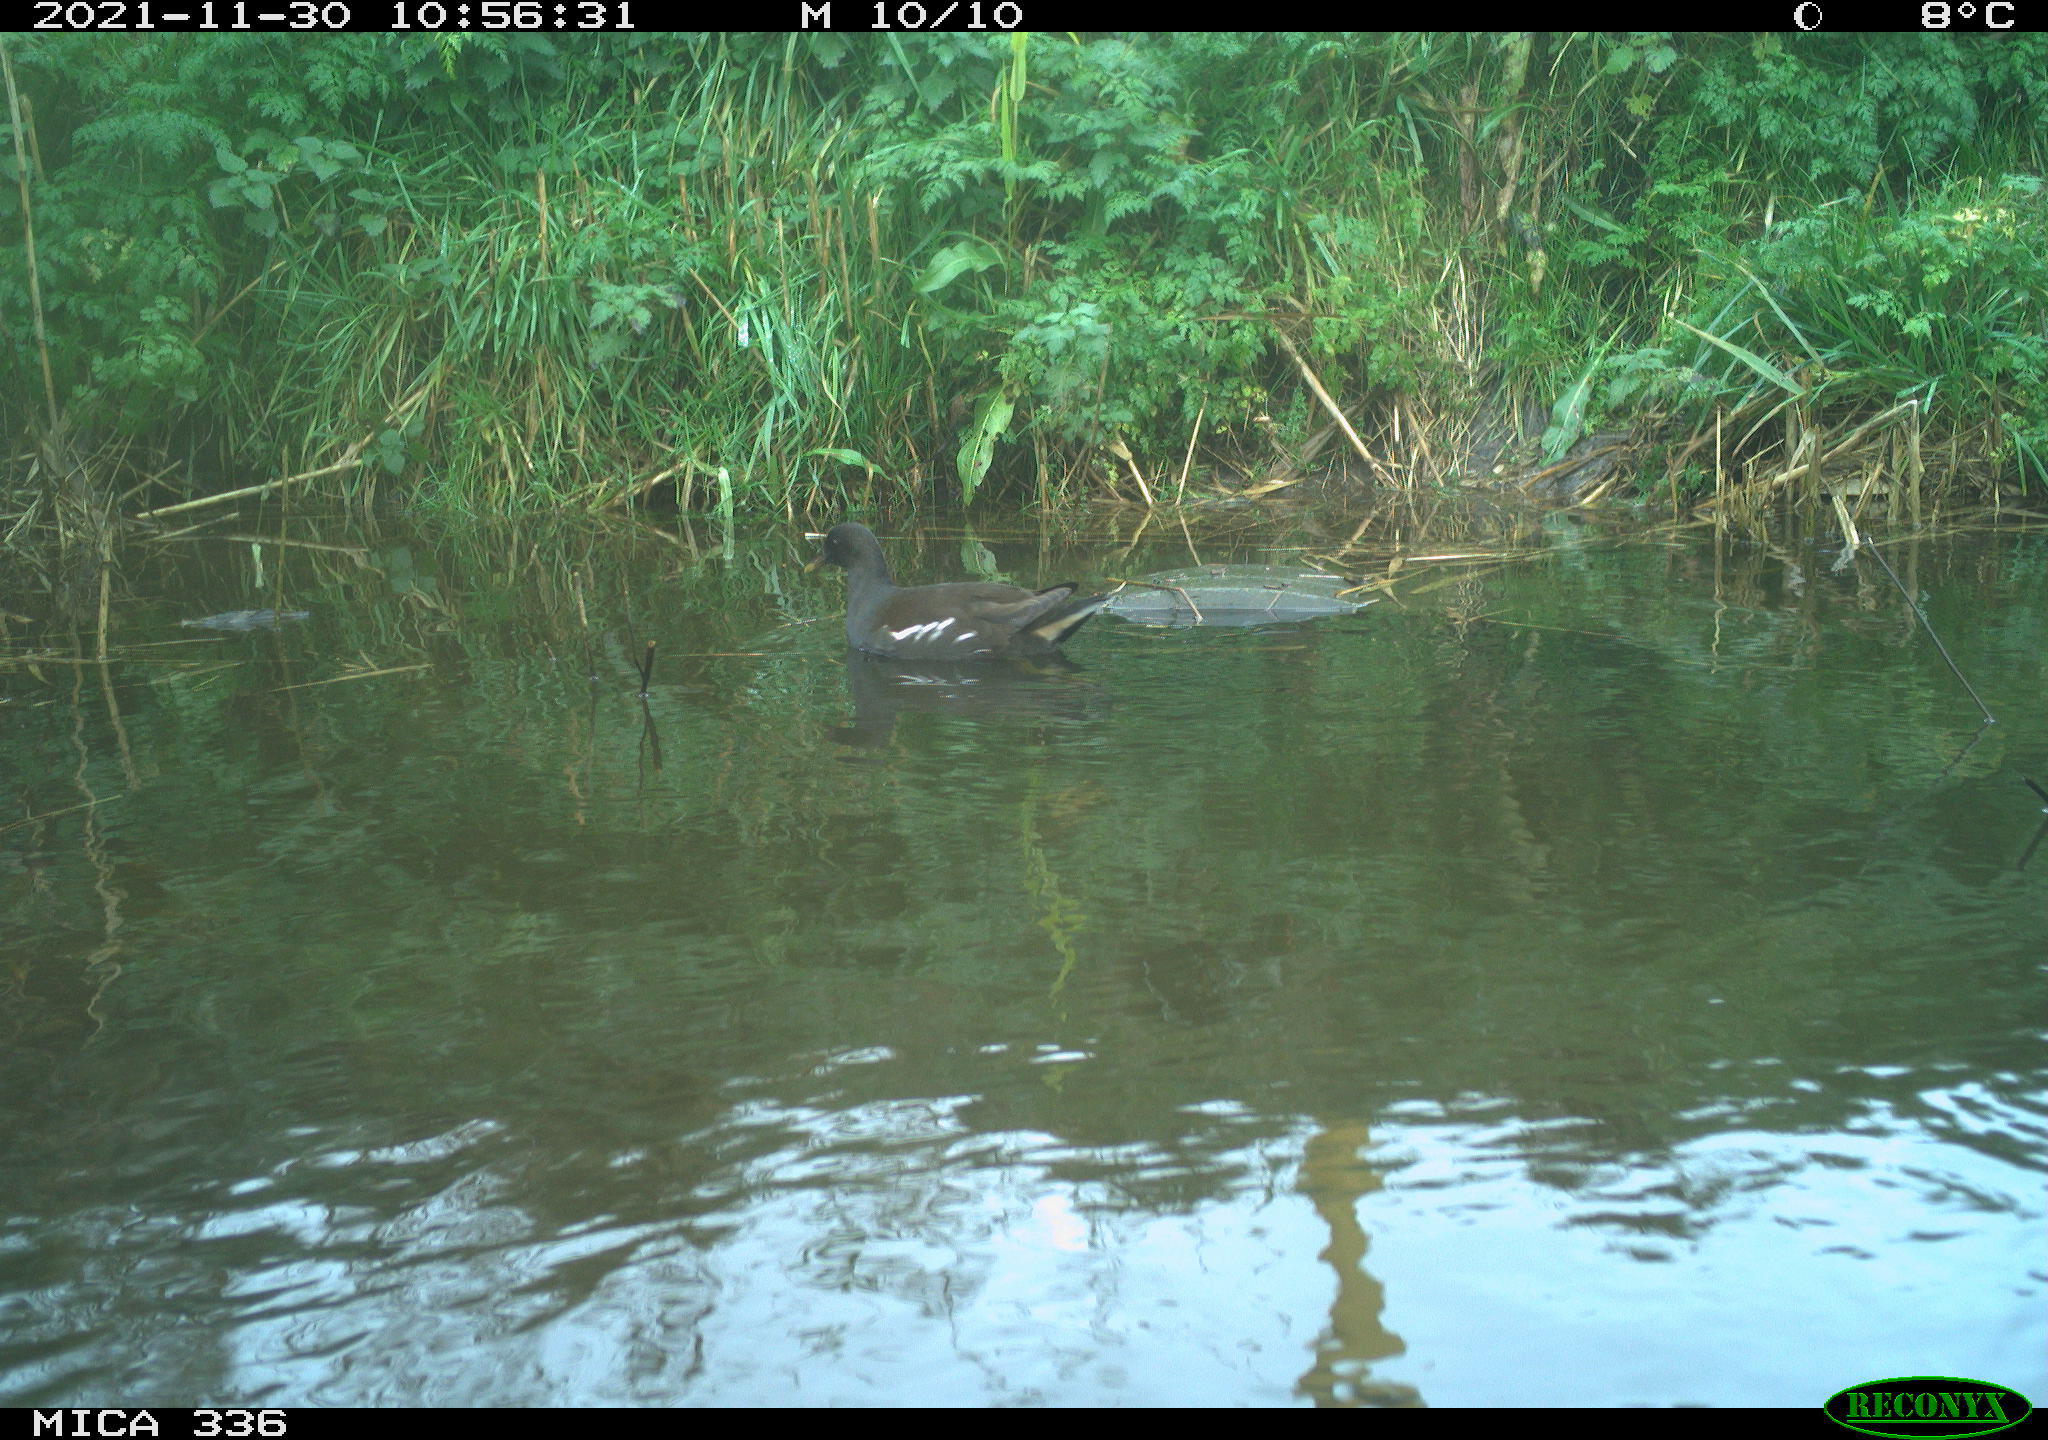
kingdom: Animalia
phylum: Chordata
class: Aves
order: Gruiformes
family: Rallidae
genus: Gallinula
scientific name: Gallinula chloropus
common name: Common moorhen
